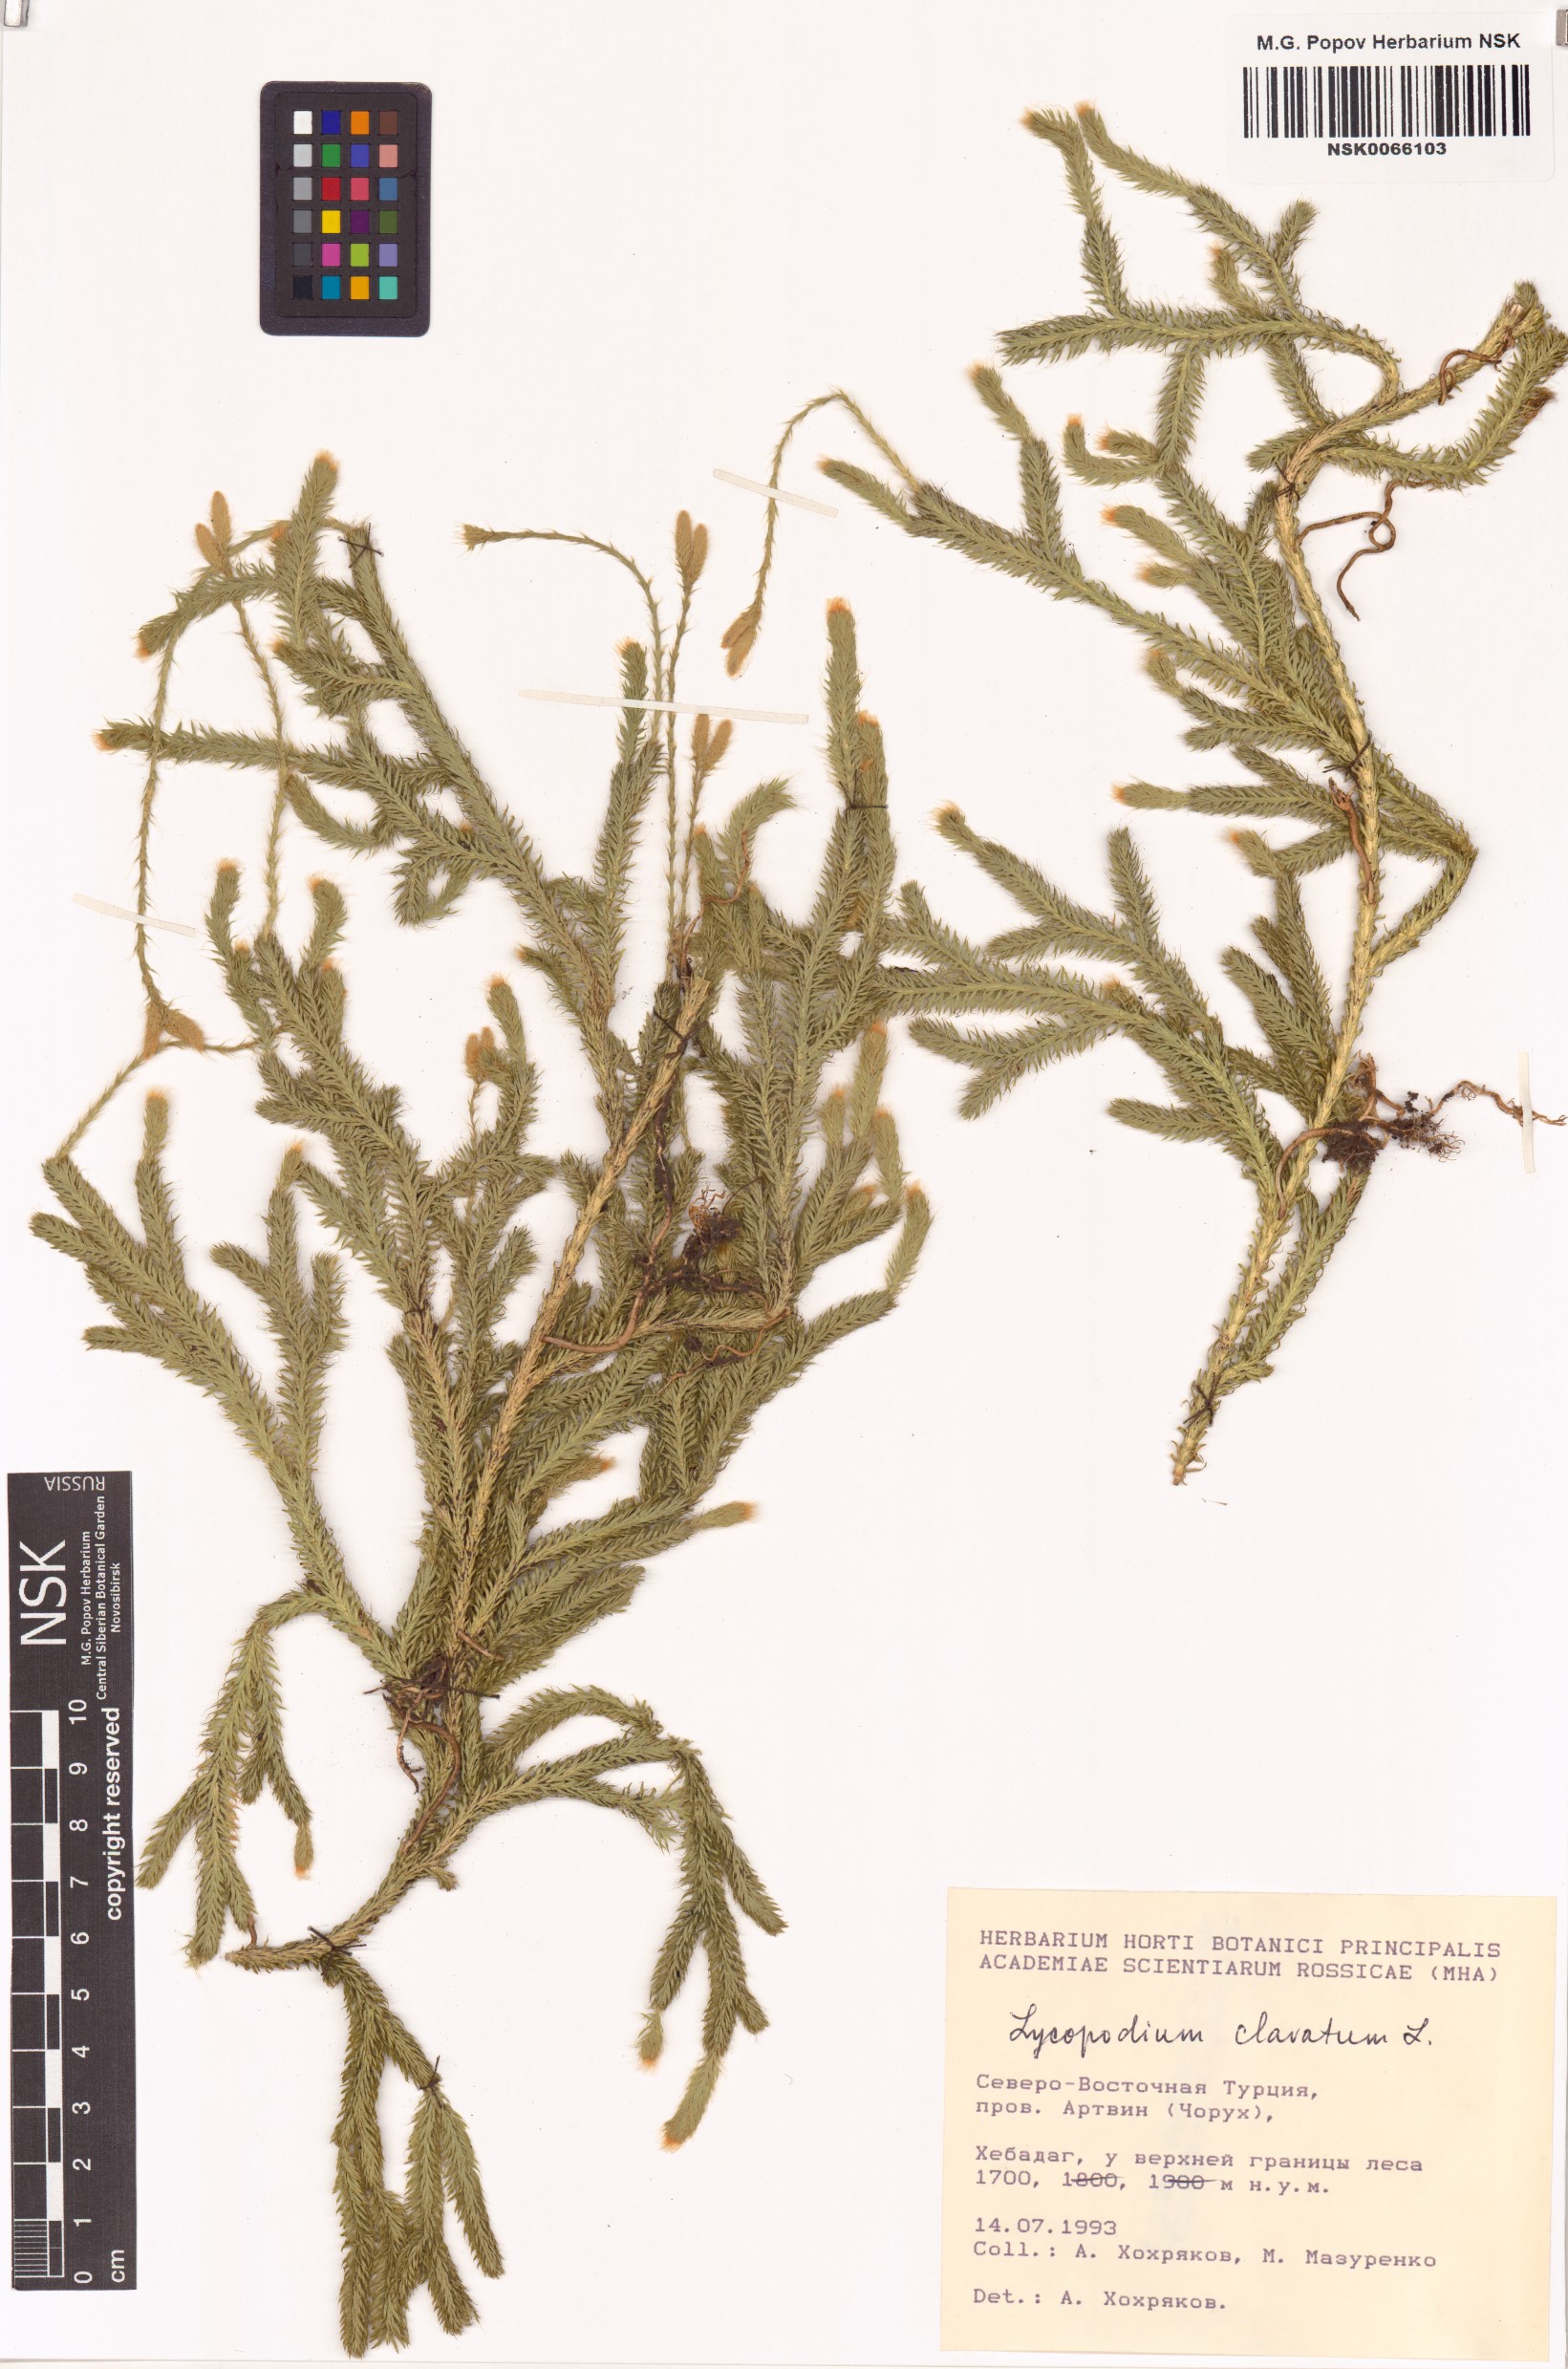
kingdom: Plantae
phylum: Tracheophyta
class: Lycopodiopsida
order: Lycopodiales
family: Lycopodiaceae
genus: Lycopodium
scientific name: Lycopodium clavatum
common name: Stag's-horn clubmoss
